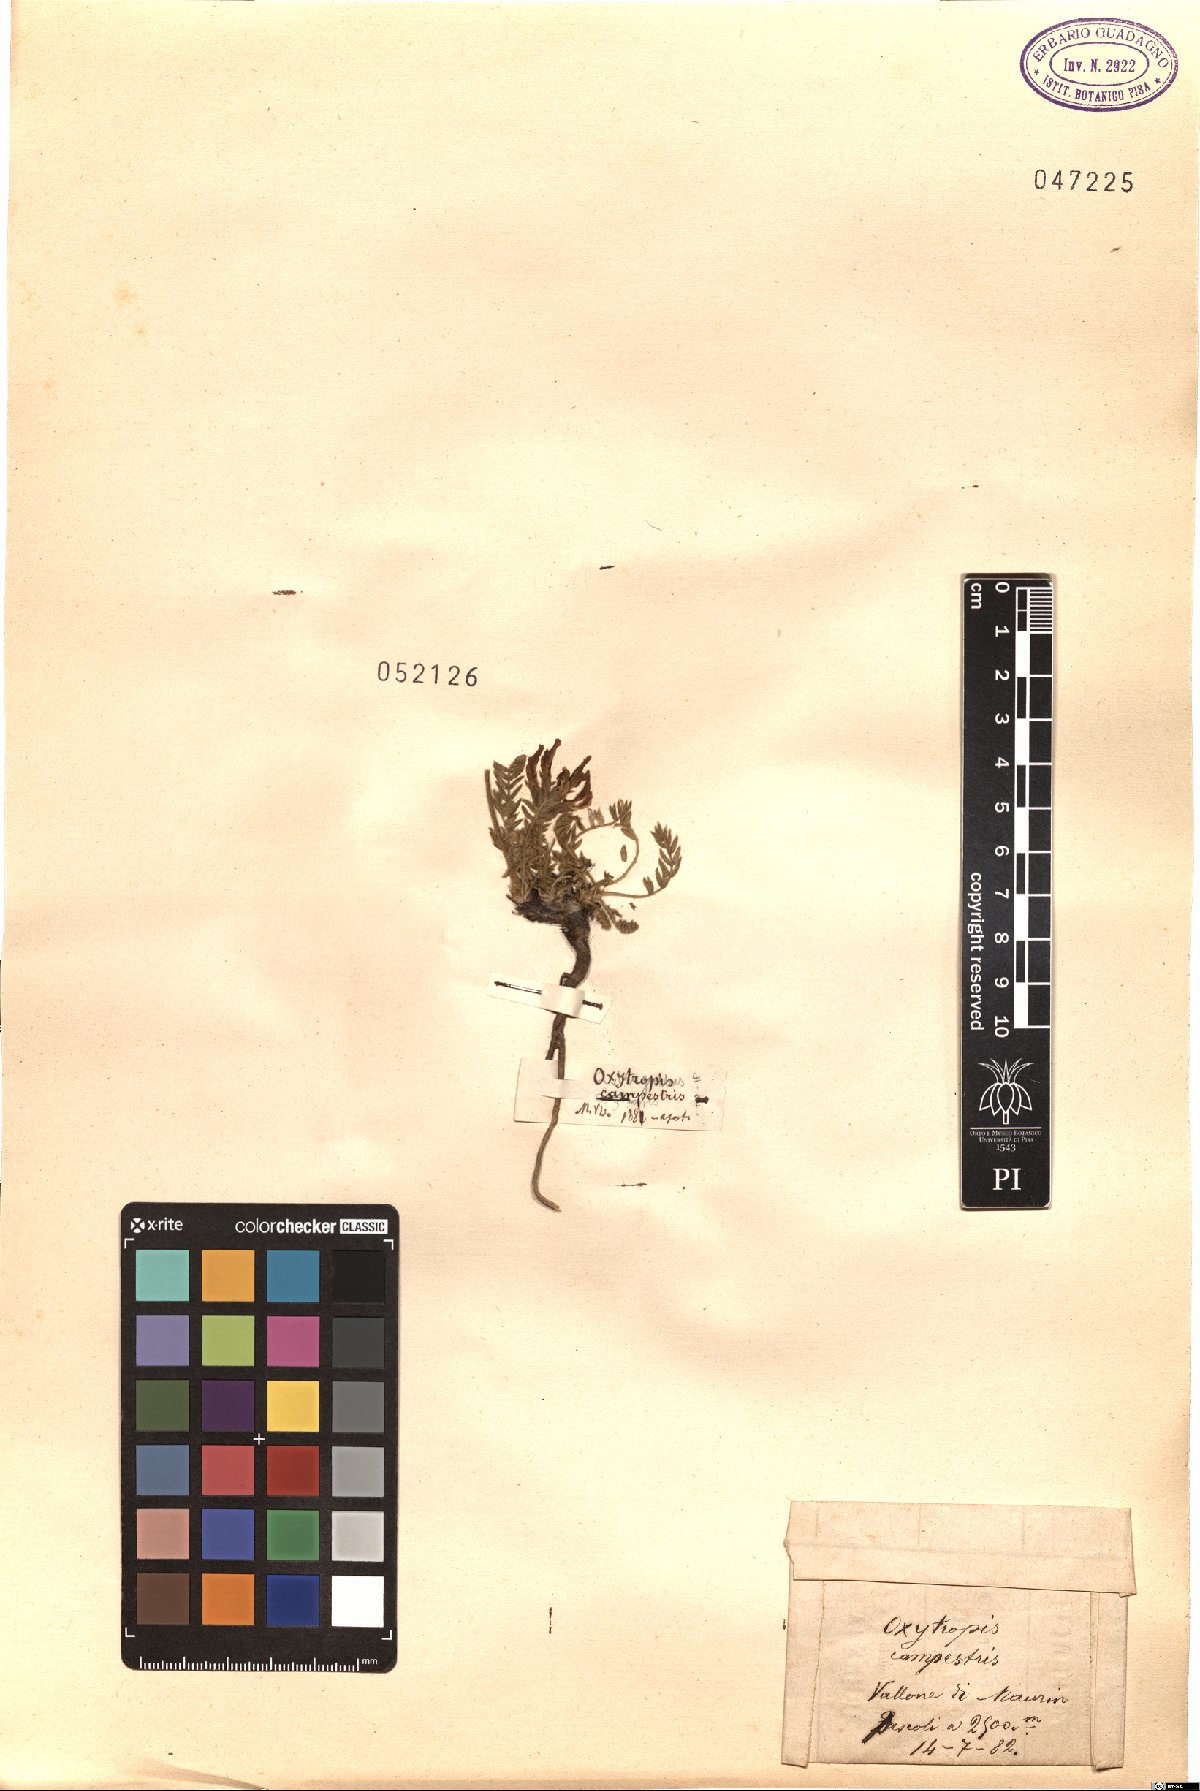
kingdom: Plantae
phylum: Tracheophyta
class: Magnoliopsida
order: Fabales
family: Fabaceae
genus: Oxytropis
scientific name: Oxytropis campestris
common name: Field locoweed
